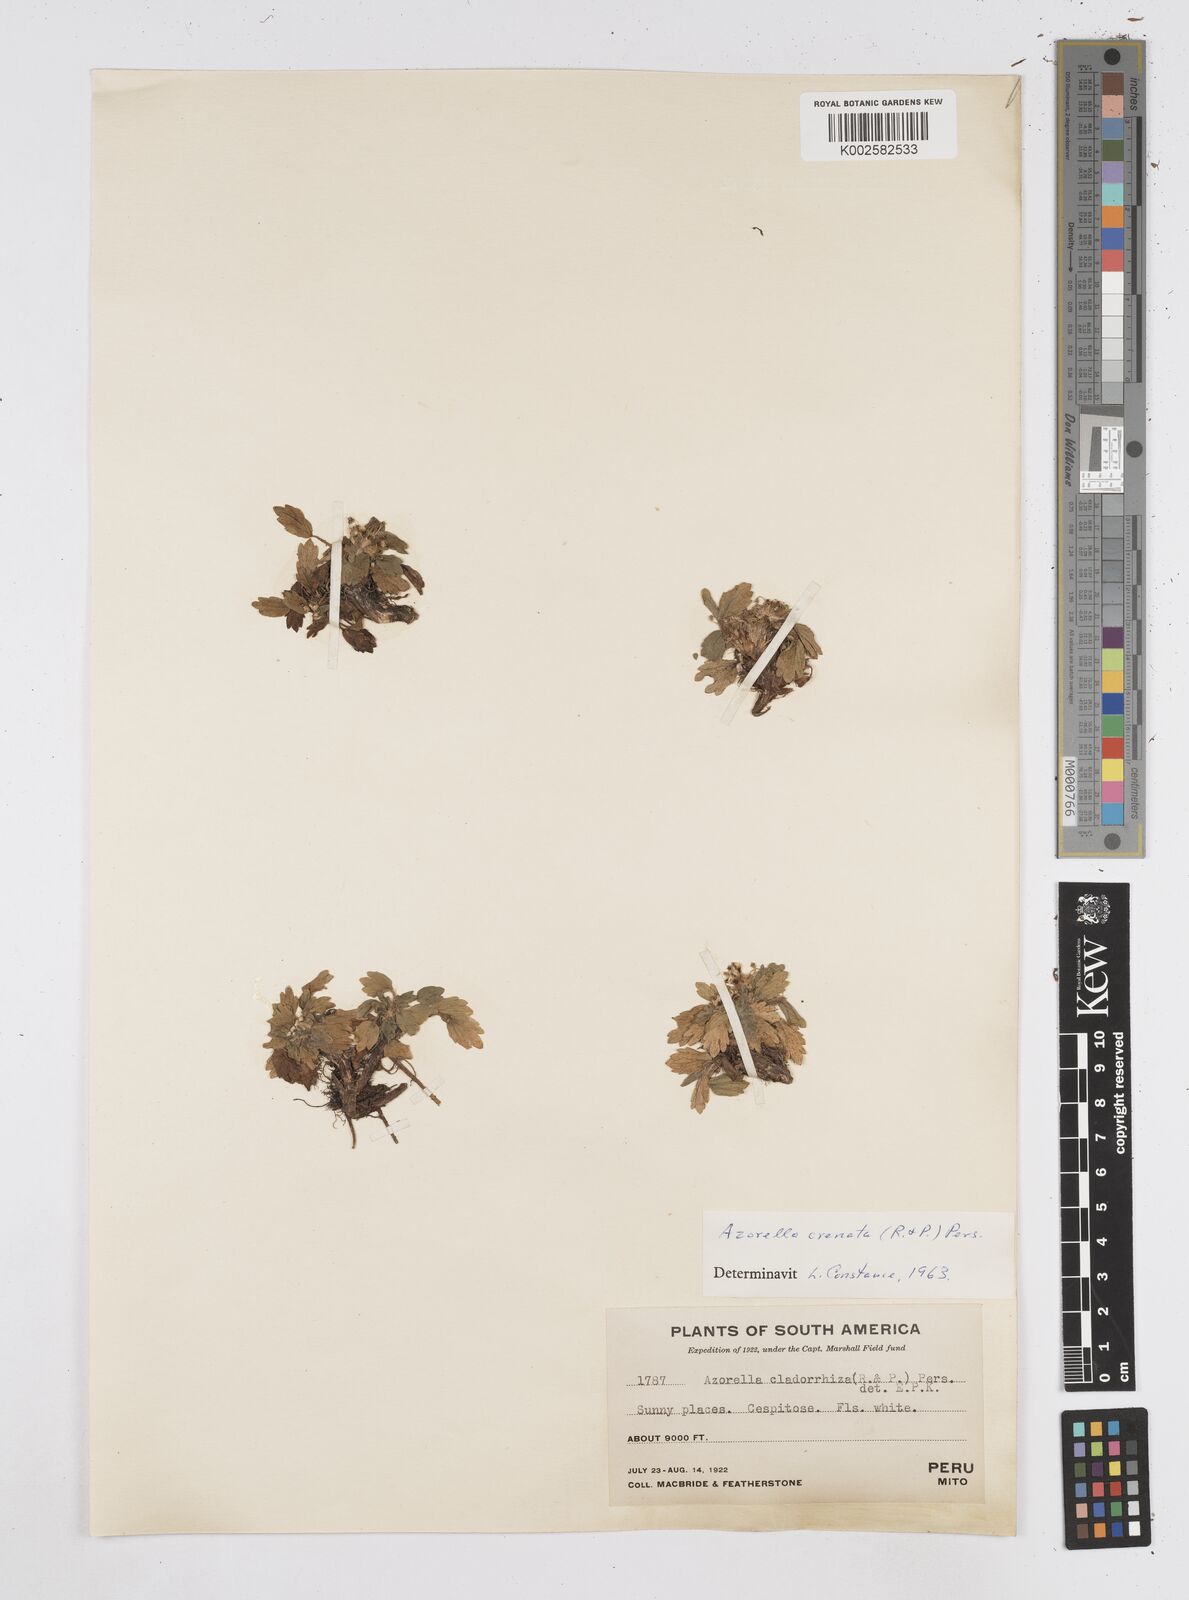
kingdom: Plantae
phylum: Tracheophyta
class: Magnoliopsida
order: Apiales
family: Apiaceae
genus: Azorella
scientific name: Azorella crenata
